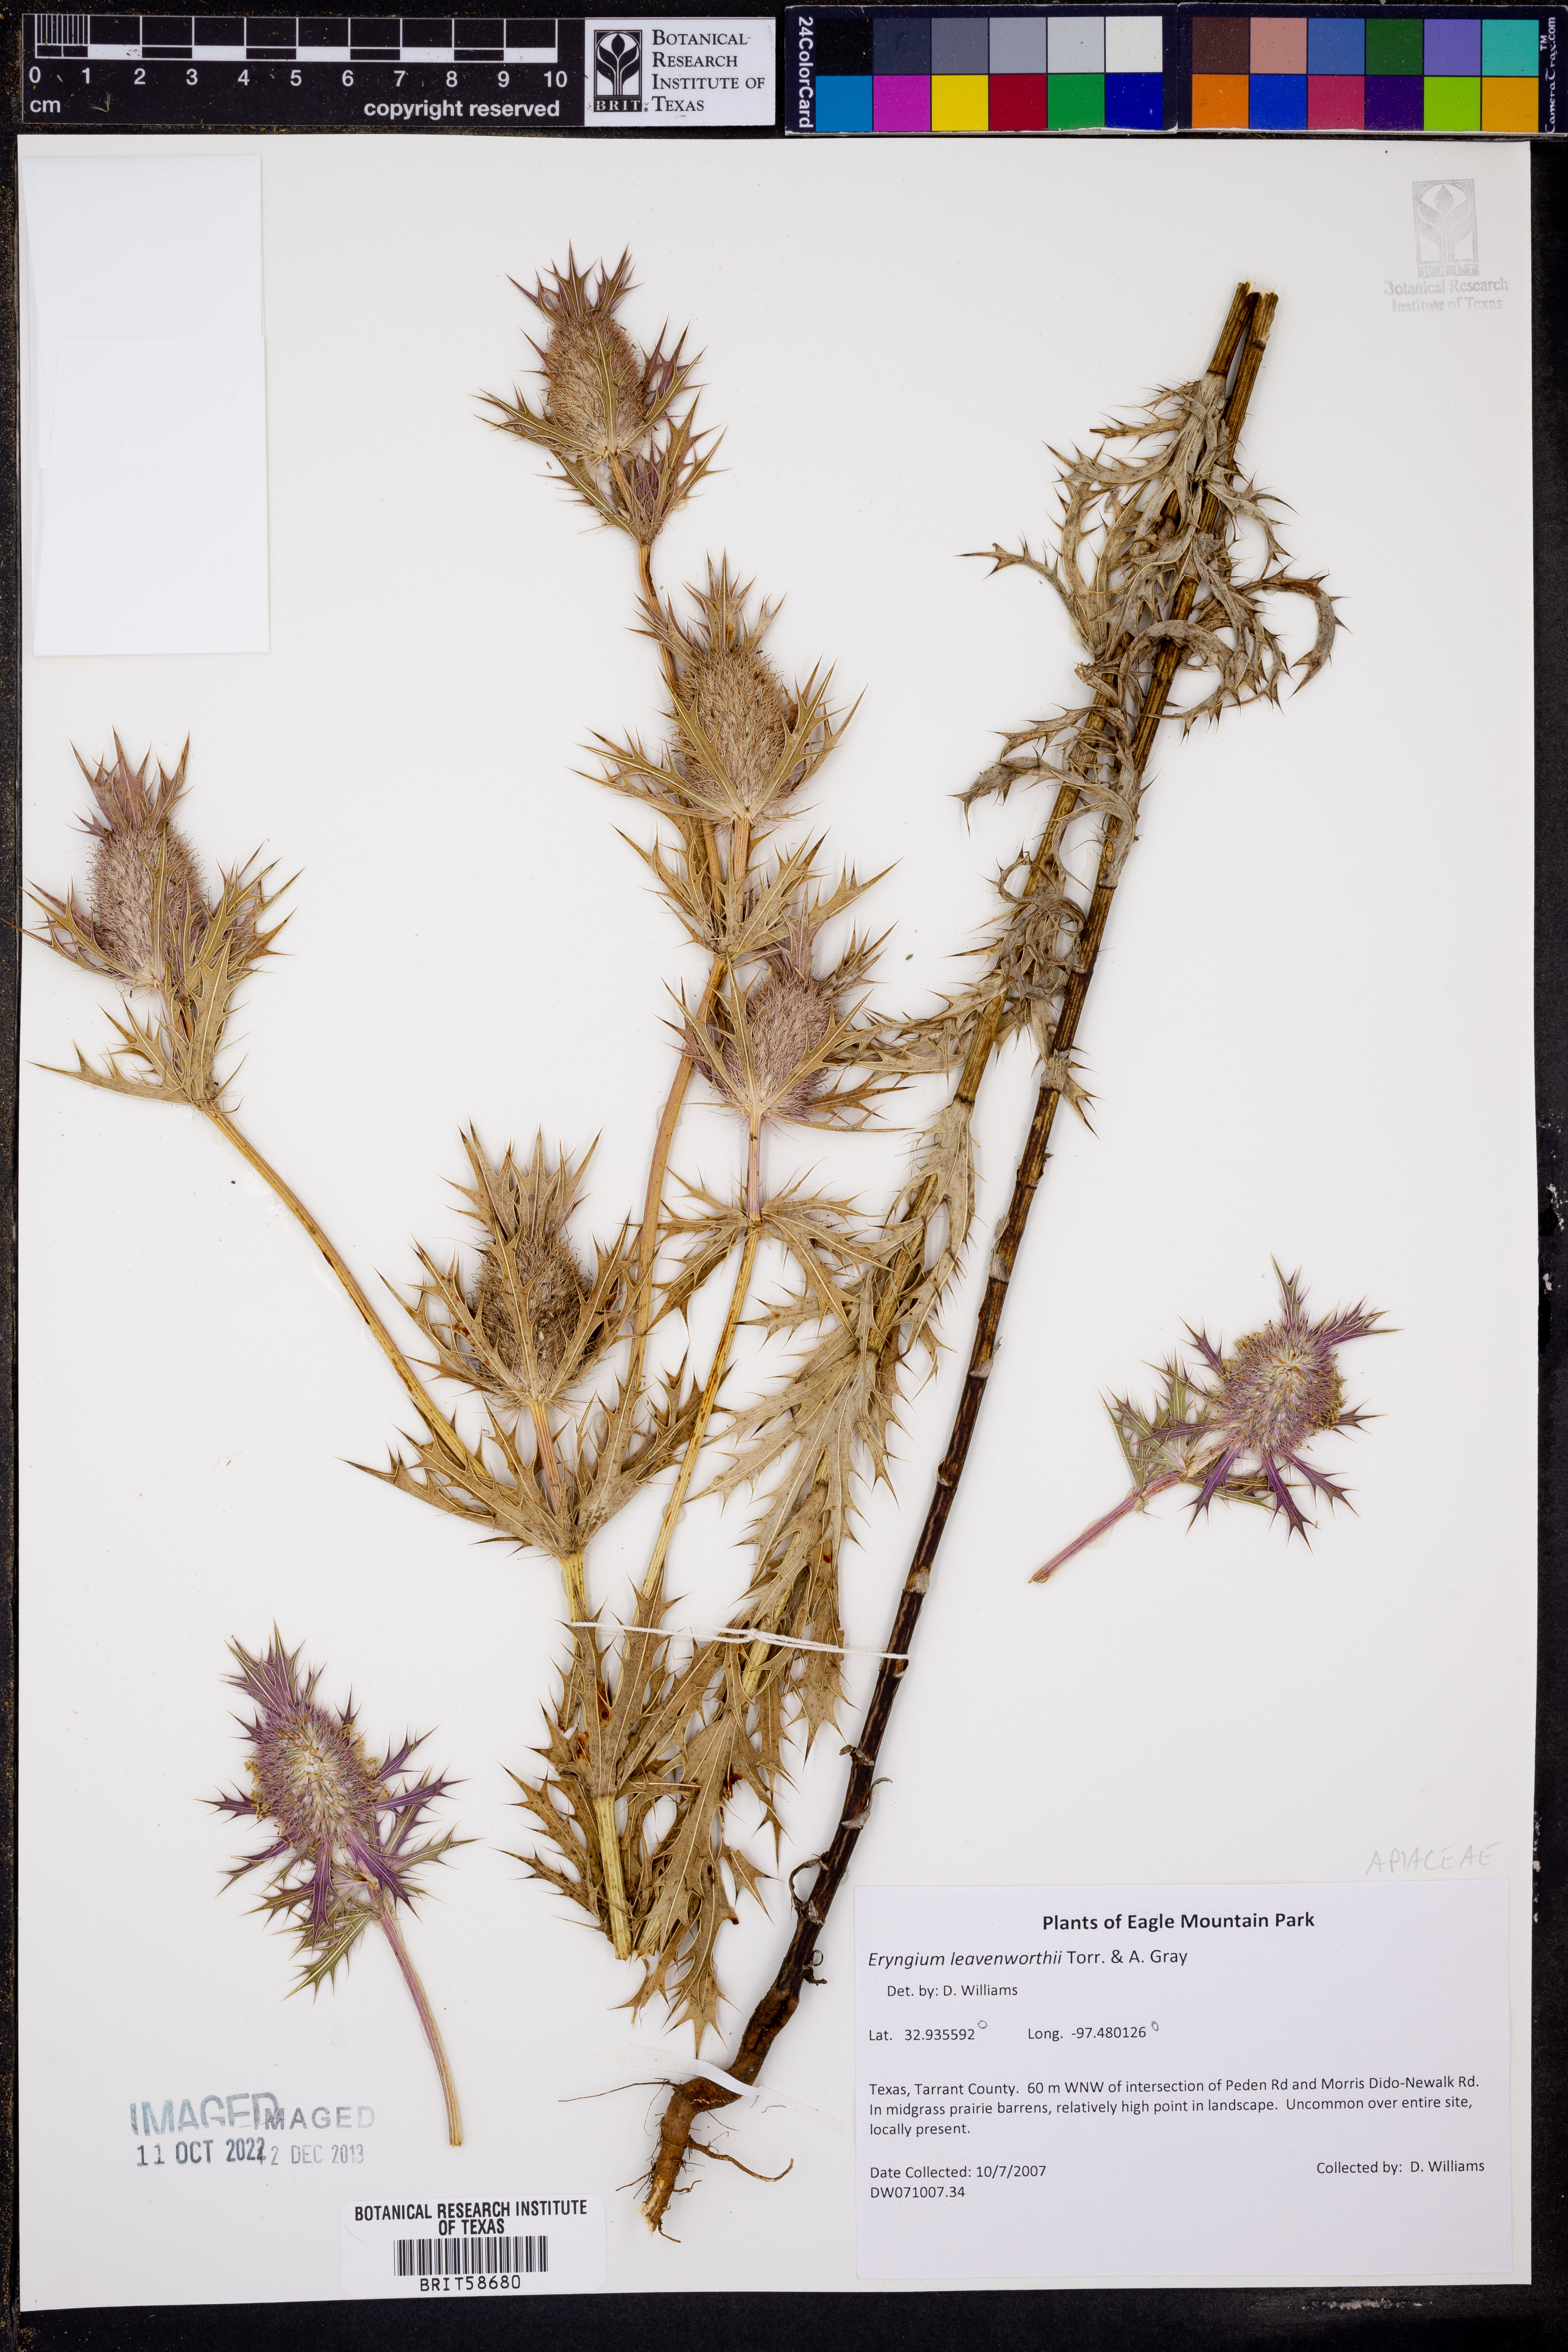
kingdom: Plantae
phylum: Tracheophyta
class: Magnoliopsida
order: Apiales
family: Apiaceae
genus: Eryngium
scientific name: Eryngium leavenworthii
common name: Leavenworth's eryngo
